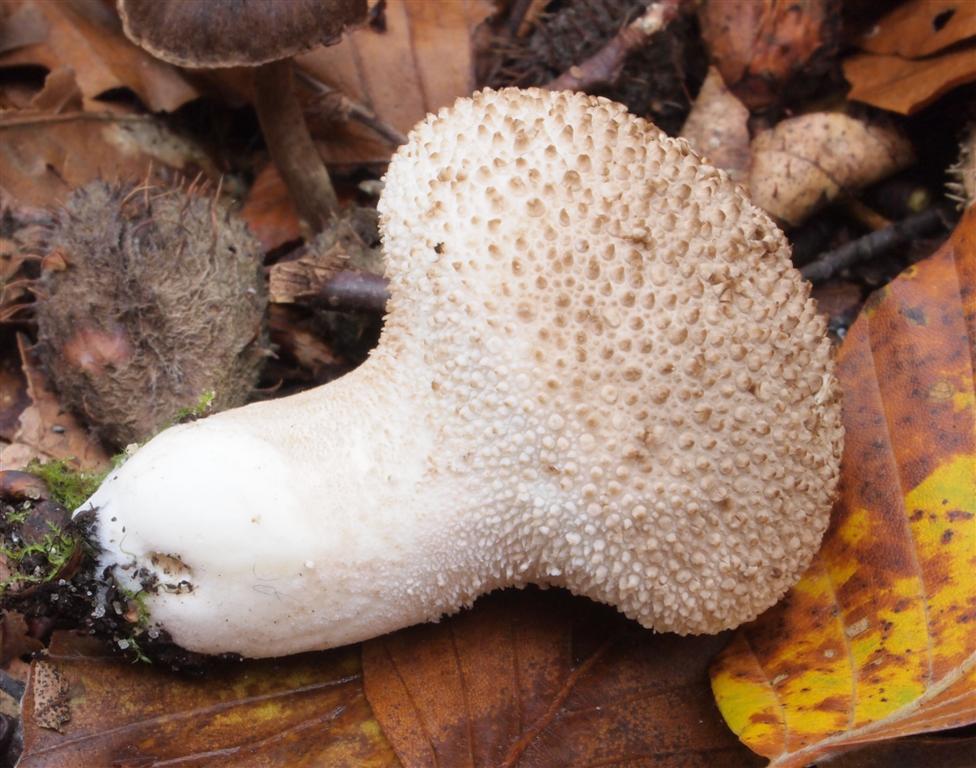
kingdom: Fungi
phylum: Basidiomycota
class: Agaricomycetes
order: Agaricales
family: Lycoperdaceae
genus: Lycoperdon
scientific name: Lycoperdon perlatum
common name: krystal-støvbold
